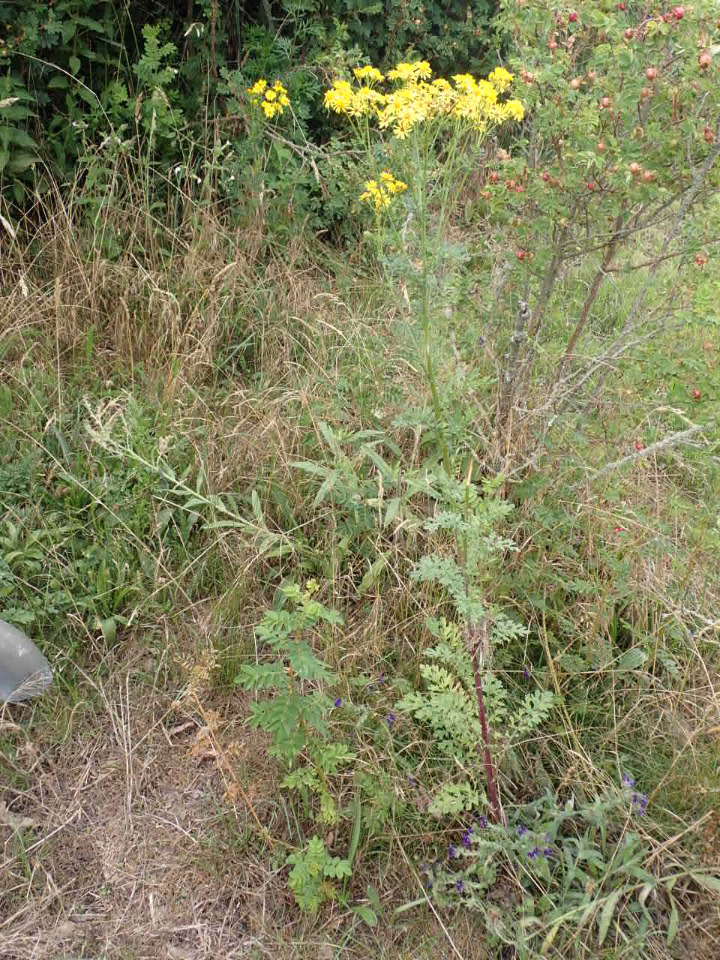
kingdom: Plantae
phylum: Tracheophyta
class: Magnoliopsida
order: Asterales
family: Asteraceae
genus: Jacobaea
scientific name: Jacobaea vulgaris
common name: Eng-brandbæger
